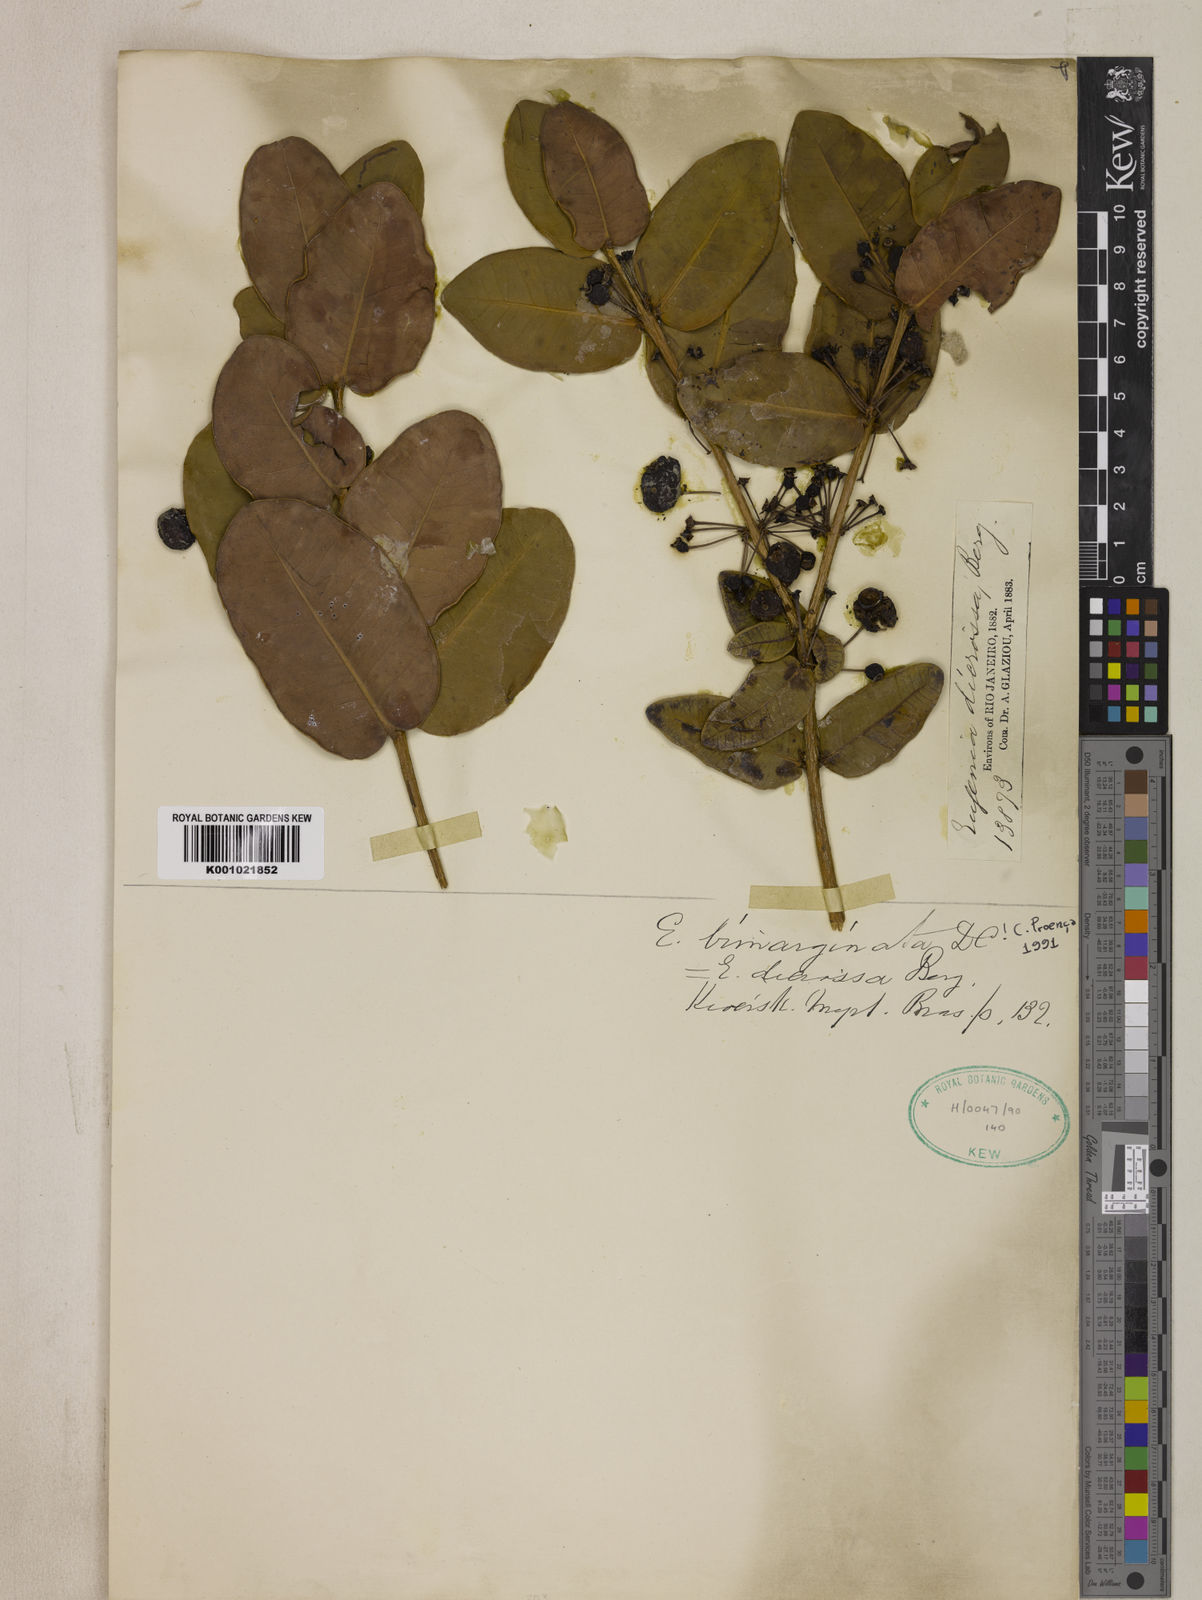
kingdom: Plantae
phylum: Tracheophyta
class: Magnoliopsida
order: Myrtales
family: Myrtaceae
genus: Eugenia
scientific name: Eugenia bimarginata
